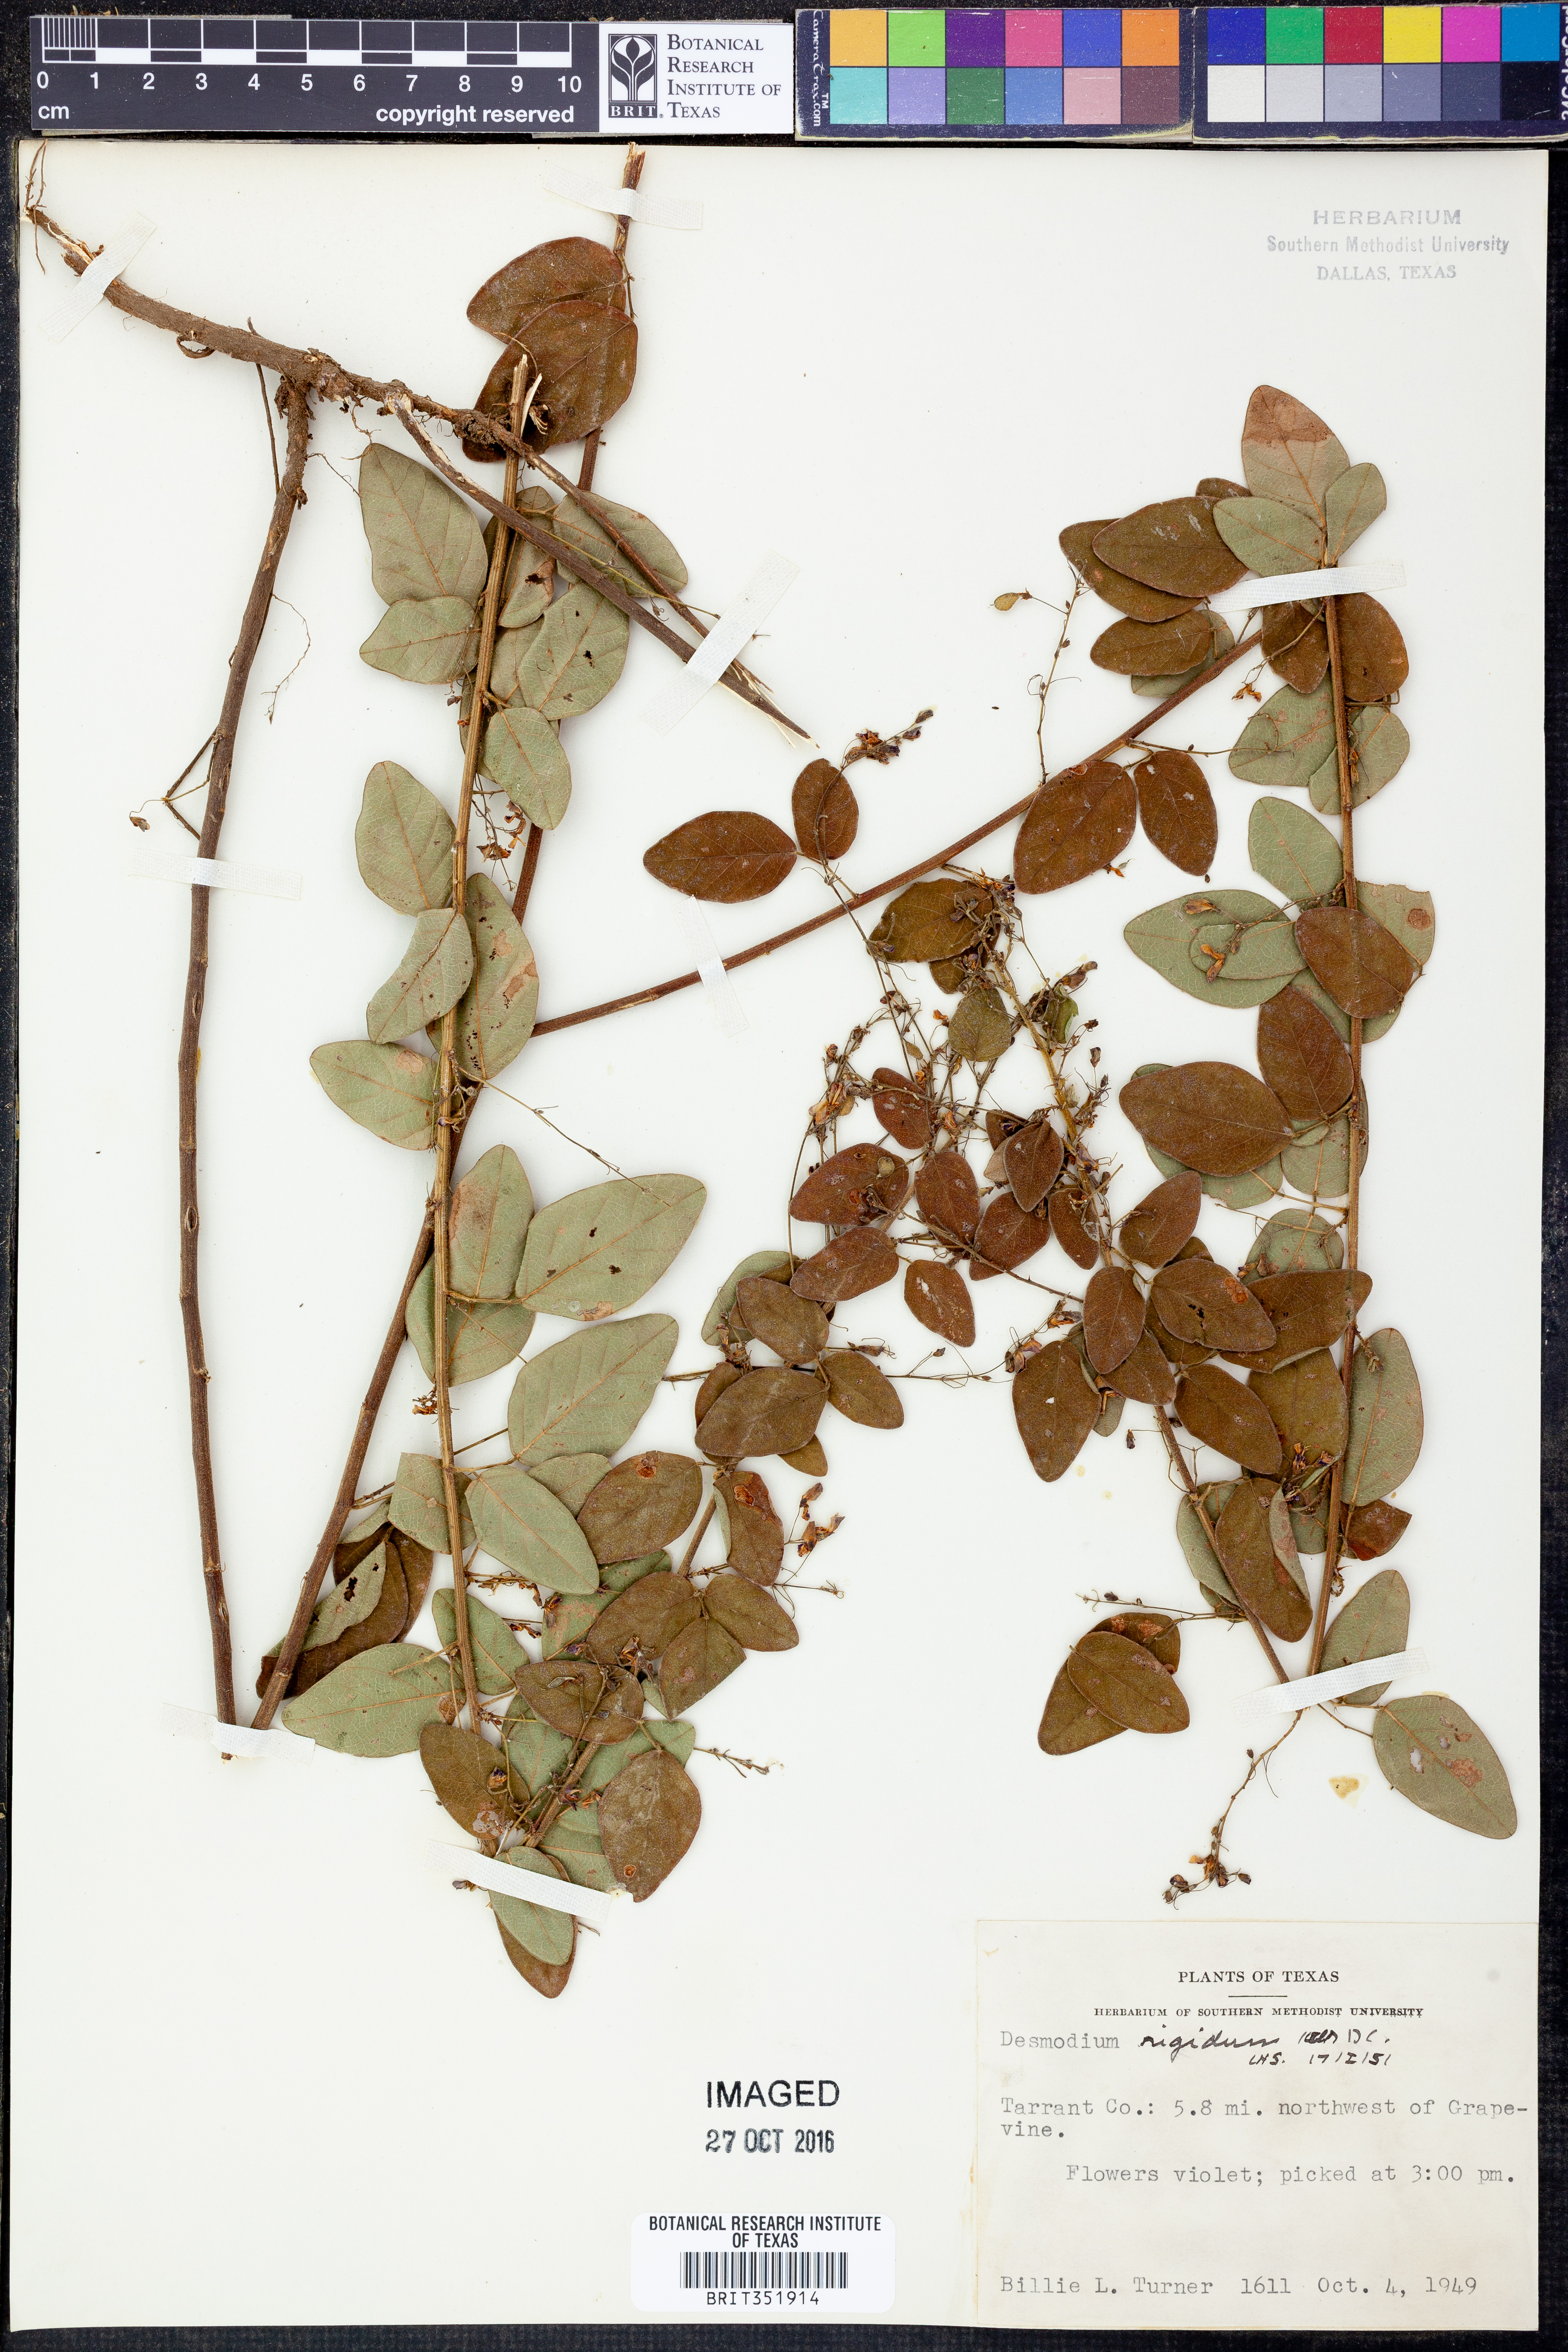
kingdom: Plantae
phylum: Tracheophyta
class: Magnoliopsida
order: Fabales
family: Fabaceae
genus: Desmodium
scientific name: Desmodium obtusum
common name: Stiff tick trefoil
